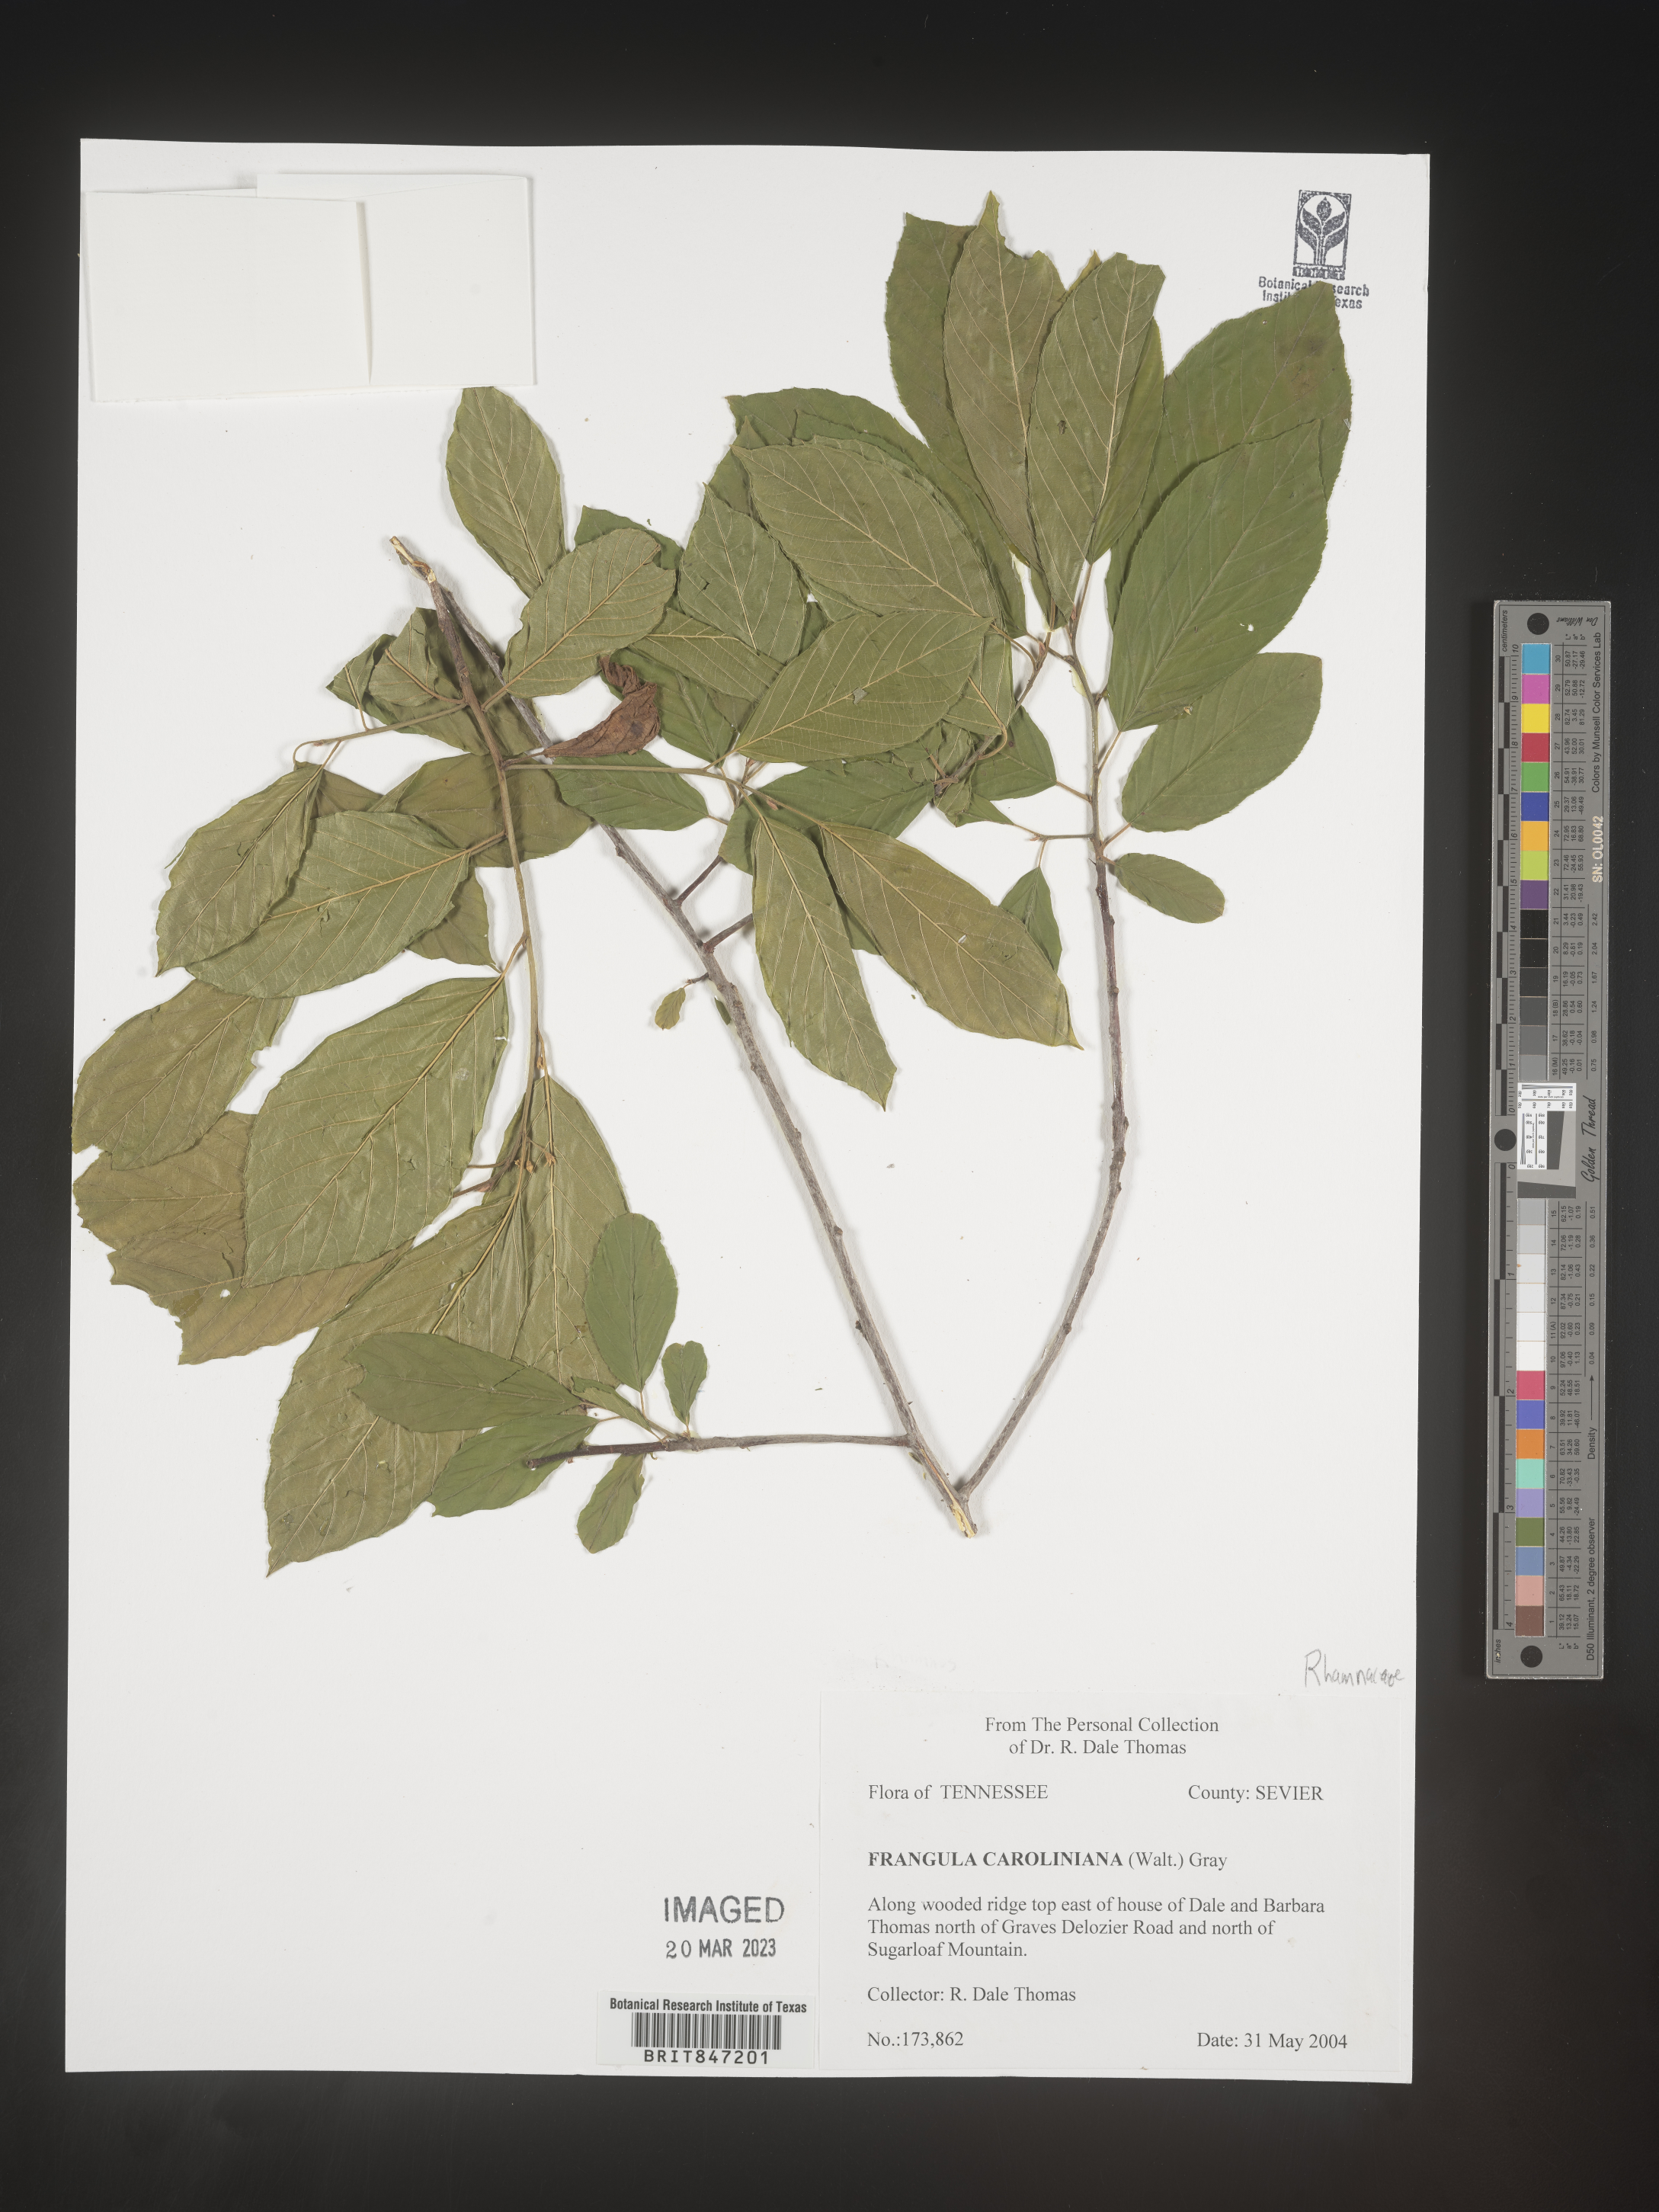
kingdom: Plantae
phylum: Tracheophyta
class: Magnoliopsida
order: Rosales
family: Rhamnaceae
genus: Frangula
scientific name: Frangula
